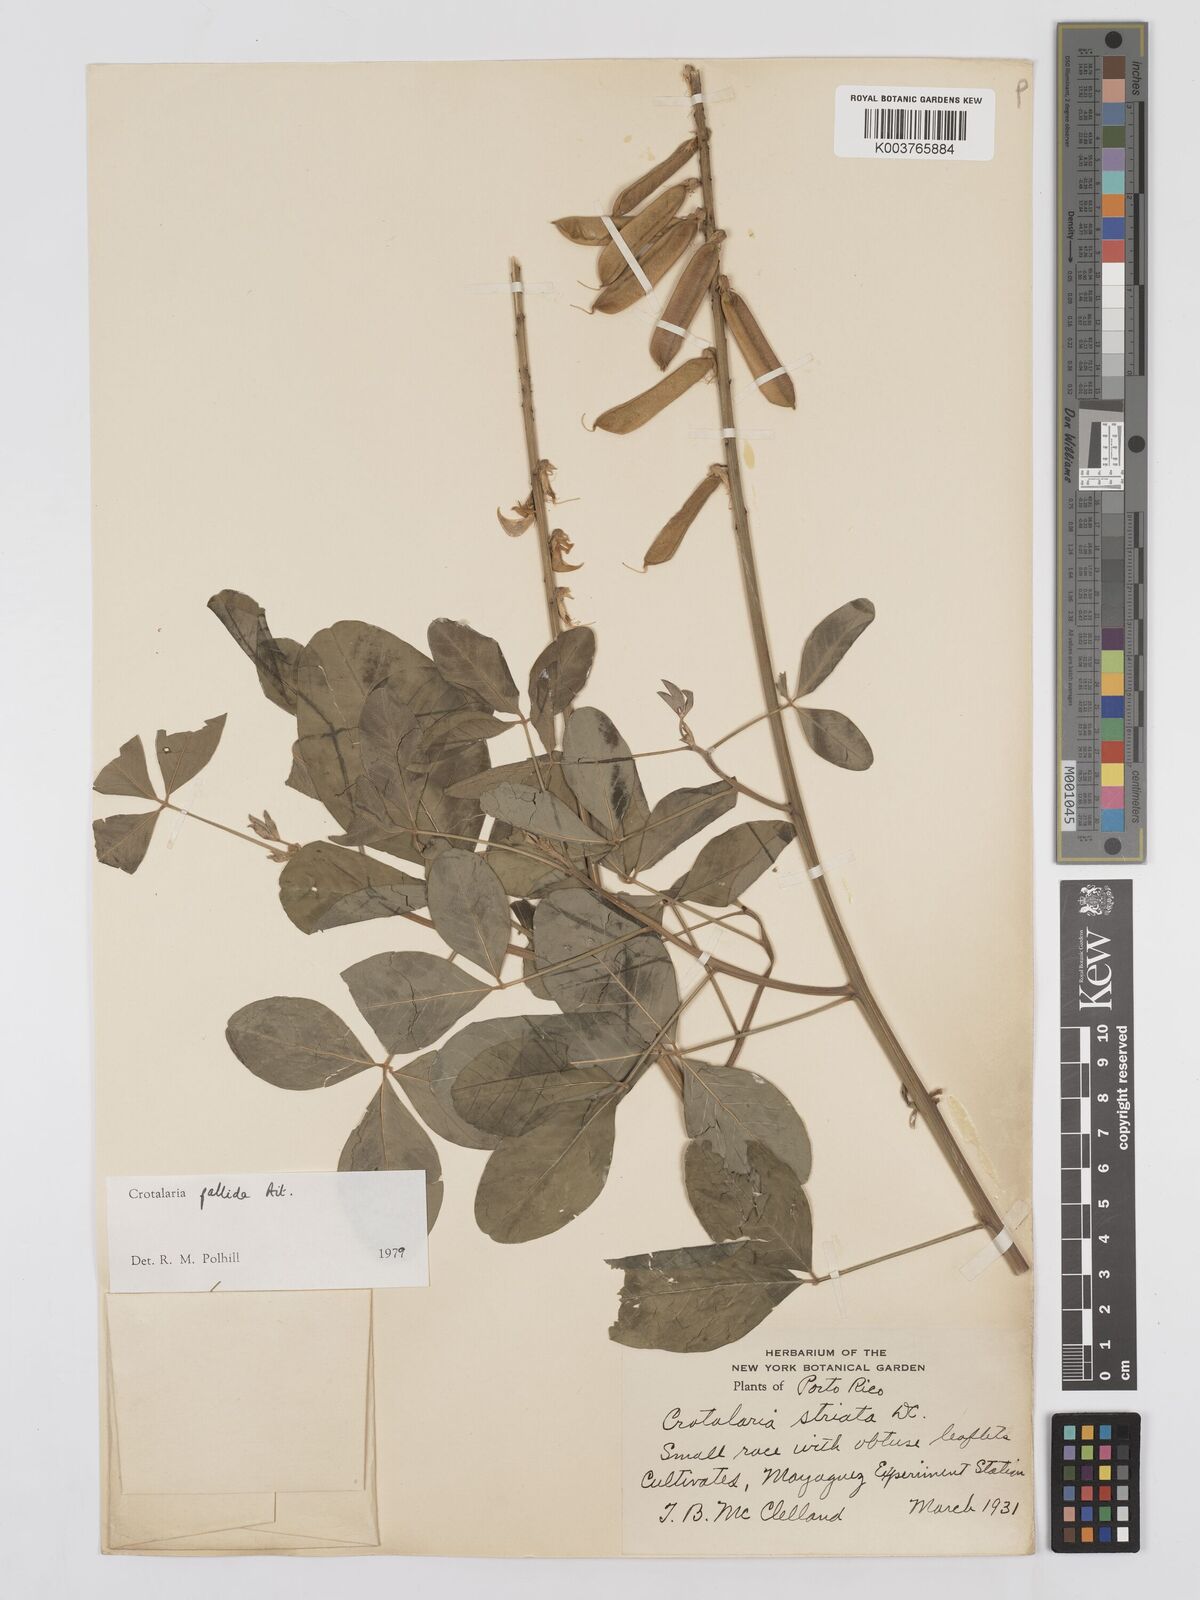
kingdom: Plantae
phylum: Tracheophyta
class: Magnoliopsida
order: Fabales
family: Fabaceae
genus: Crotalaria
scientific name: Crotalaria pallida
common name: Smooth rattlebox
